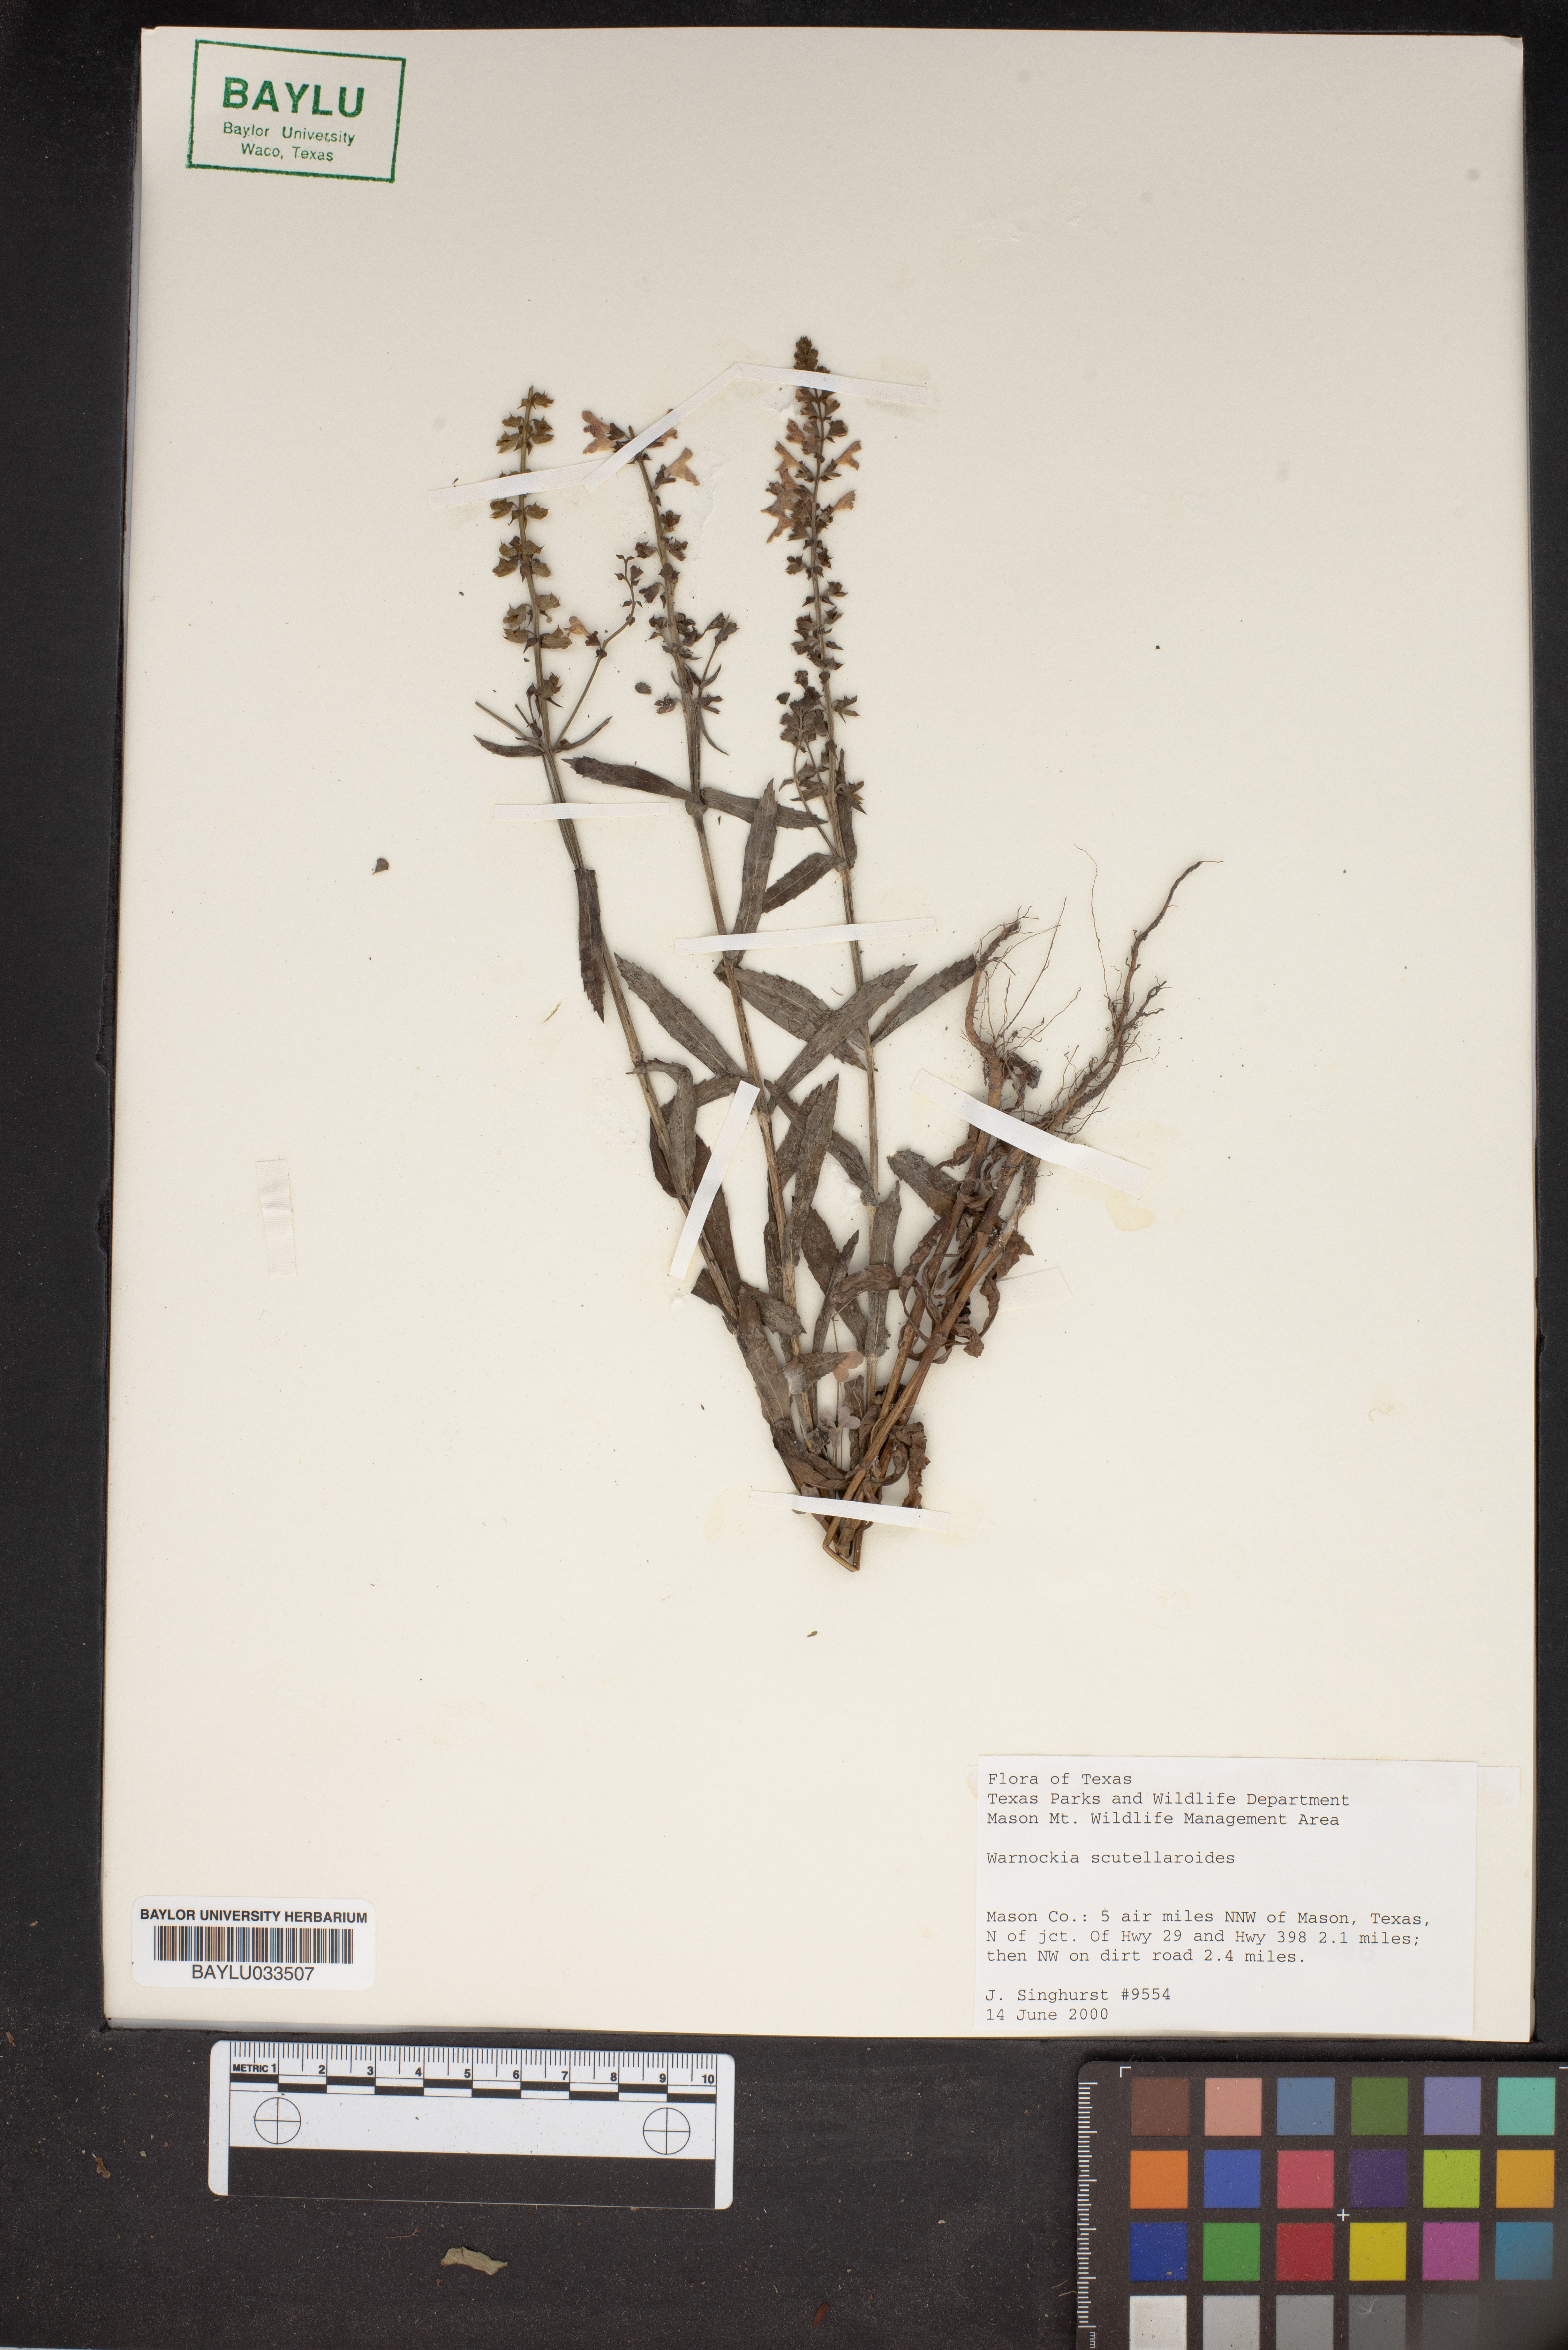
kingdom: Plantae
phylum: Tracheophyta
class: Magnoliopsida
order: Lamiales
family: Lamiaceae
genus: Warnockia
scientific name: Warnockia scutellarioides
